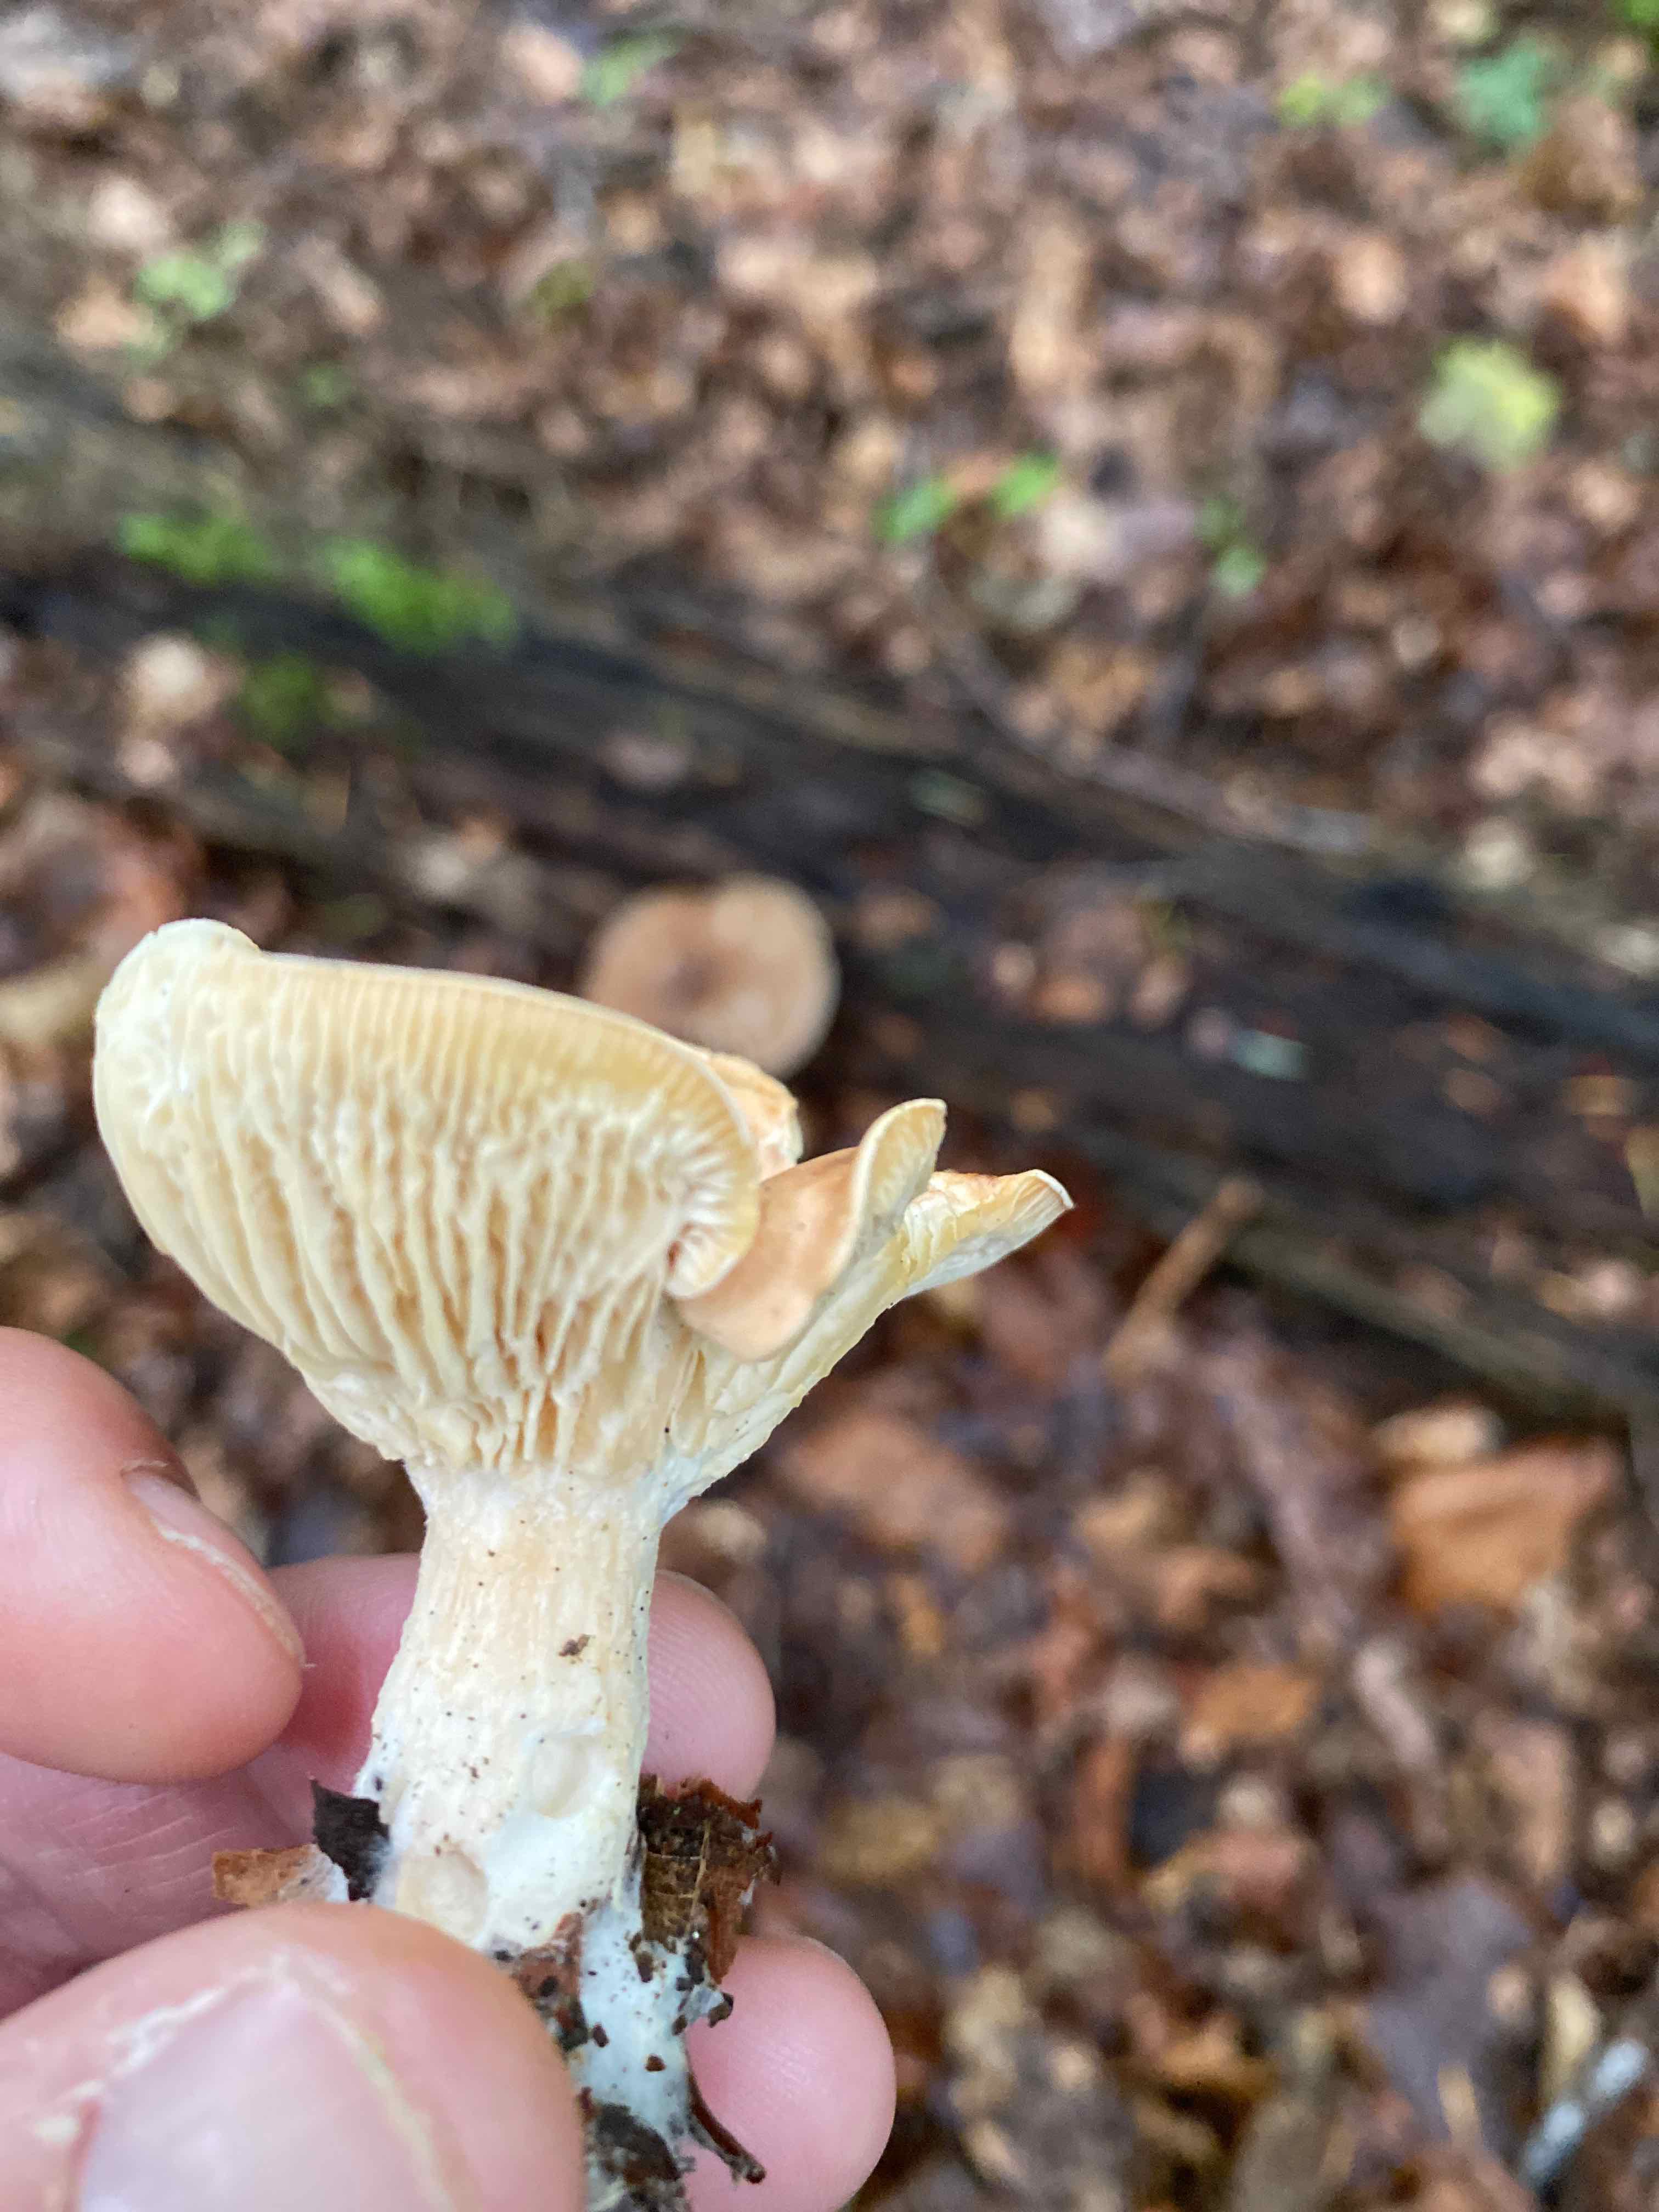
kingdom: Fungi
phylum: Basidiomycota
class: Agaricomycetes
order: Agaricales
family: Tricholomataceae
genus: Infundibulicybe
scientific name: Infundibulicybe gibba
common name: almindelig tragthat
